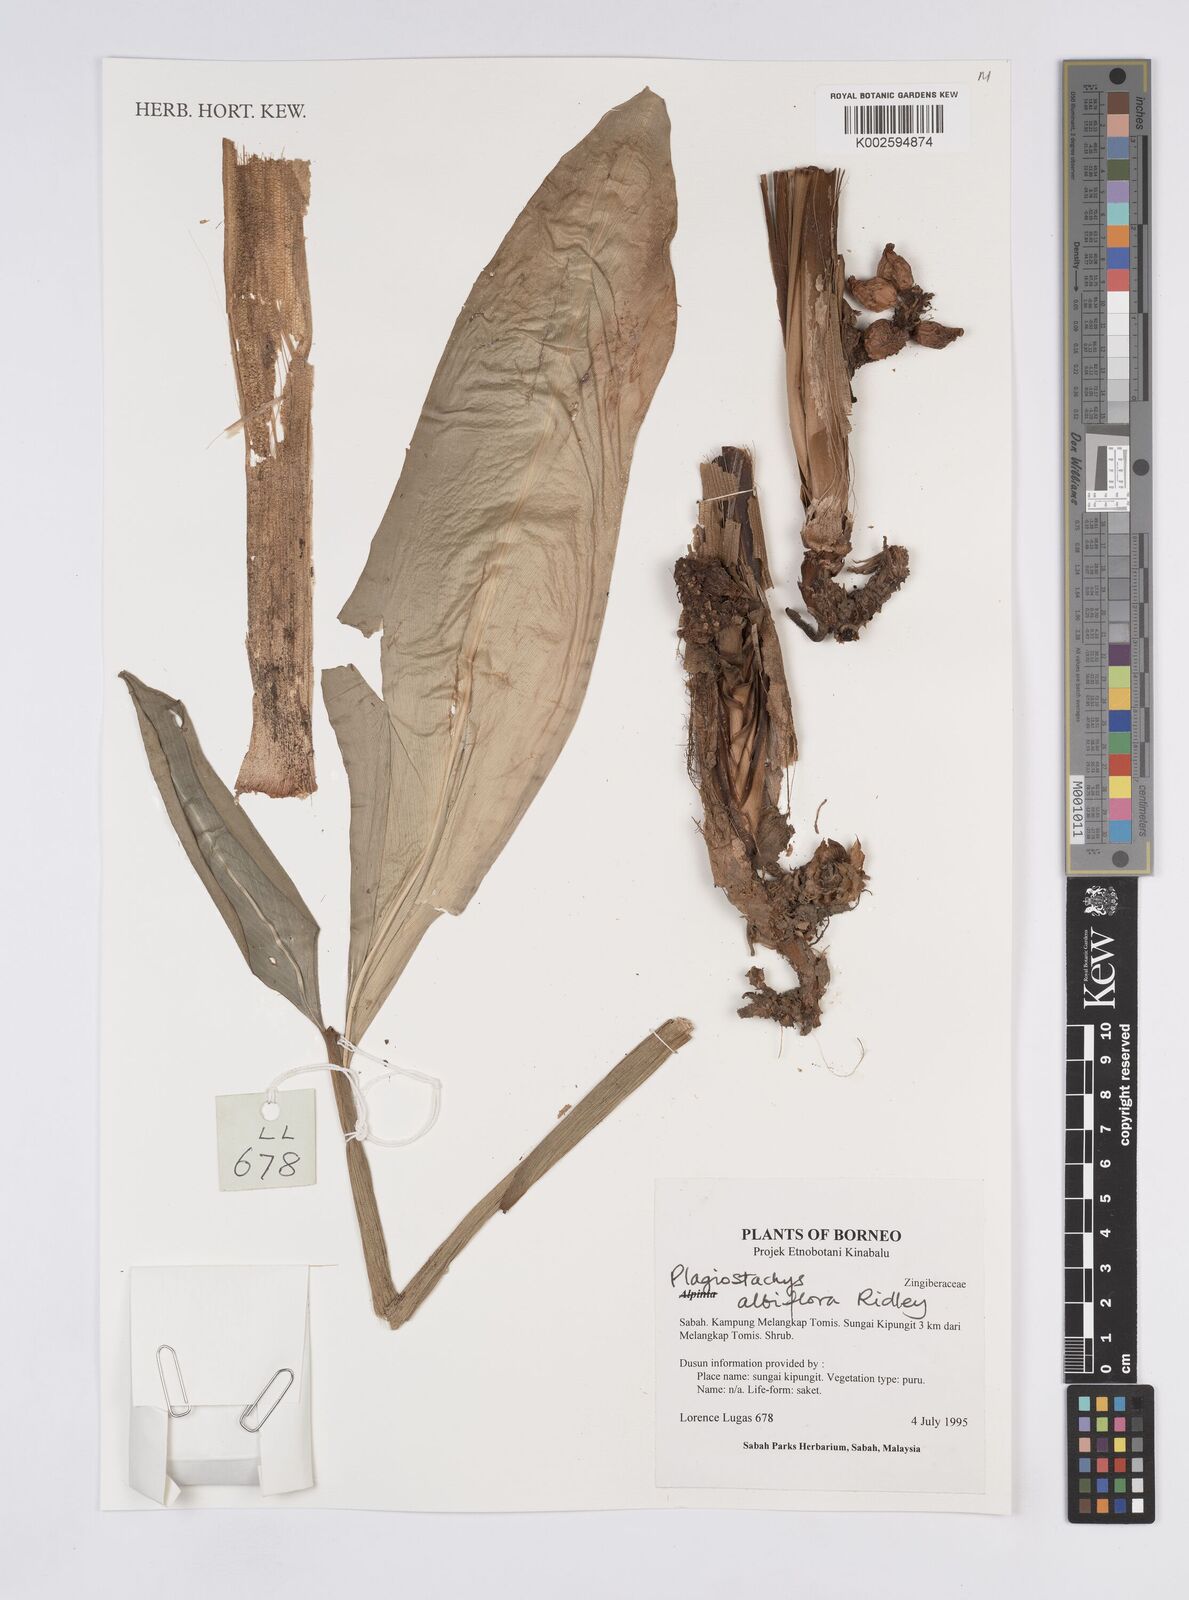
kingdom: Plantae
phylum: Tracheophyta
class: Liliopsida
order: Zingiberales
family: Zingiberaceae
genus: Plagiostachys
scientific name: Plagiostachys albiflora
